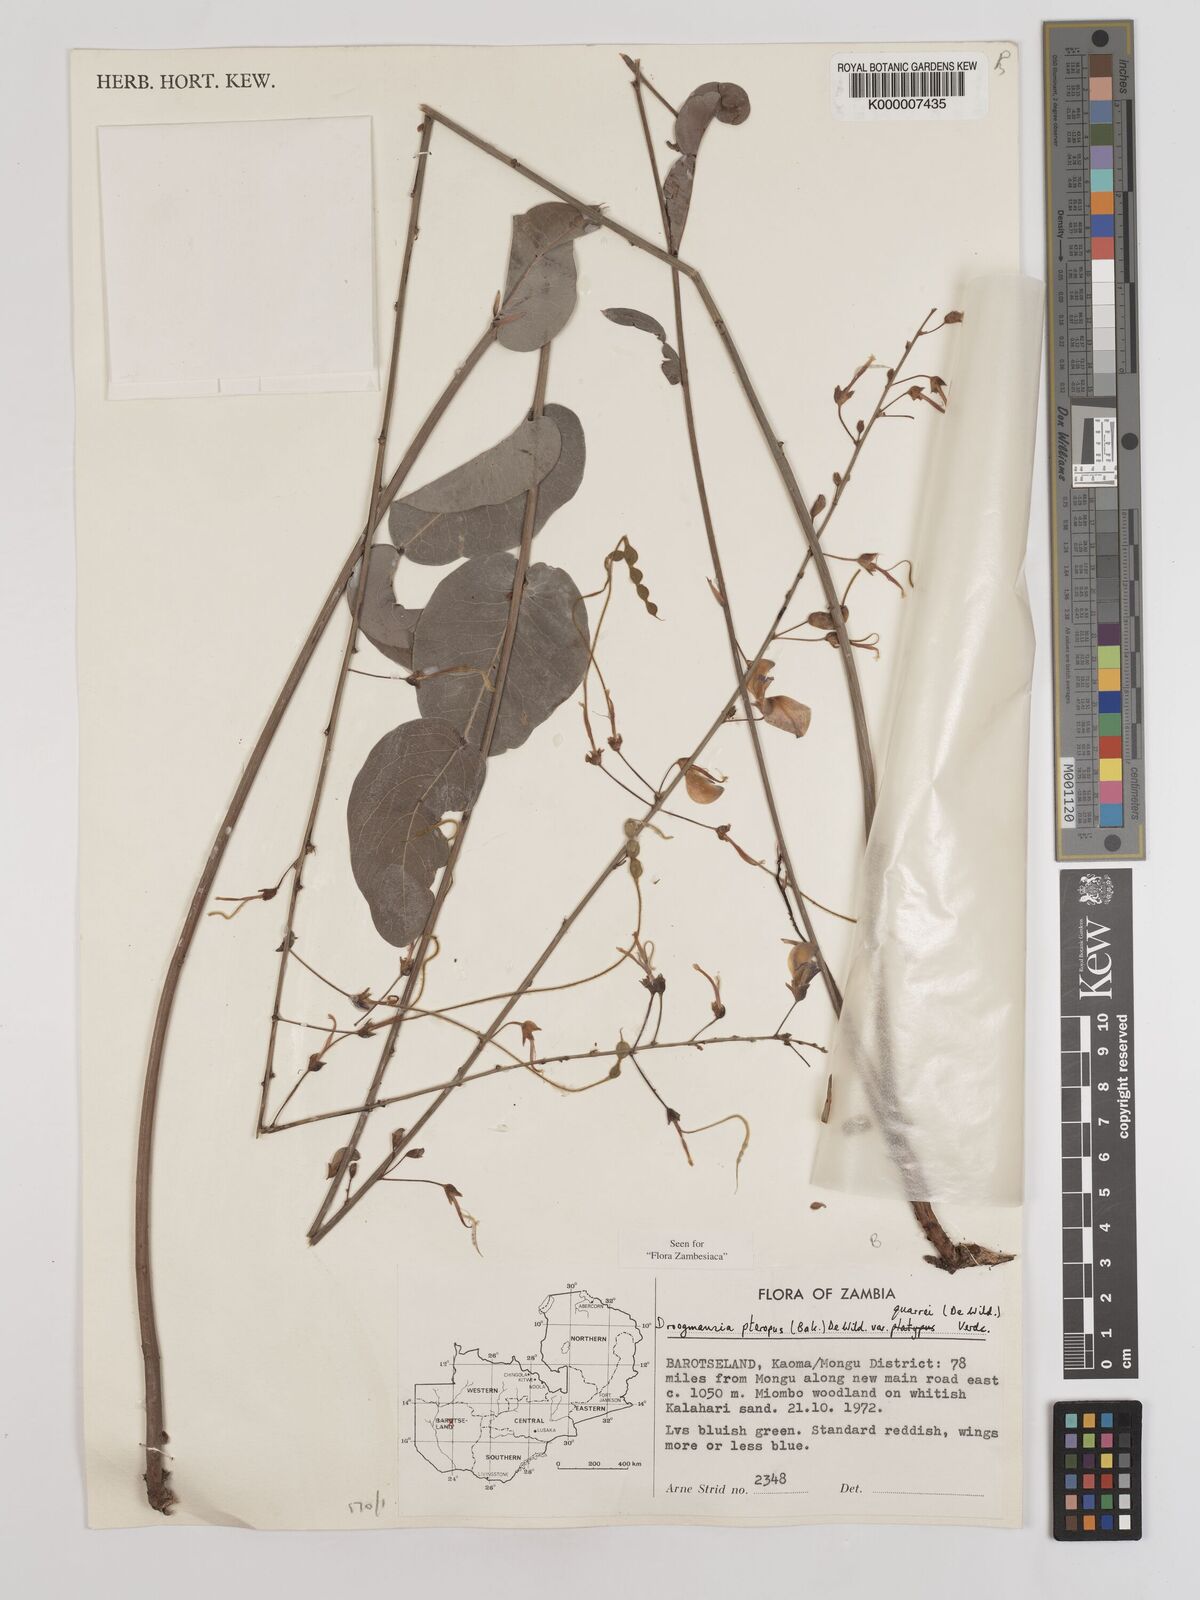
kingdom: Plantae
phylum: Tracheophyta
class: Magnoliopsida
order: Fabales
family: Fabaceae
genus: Droogmansia
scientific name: Droogmansia pteropus
